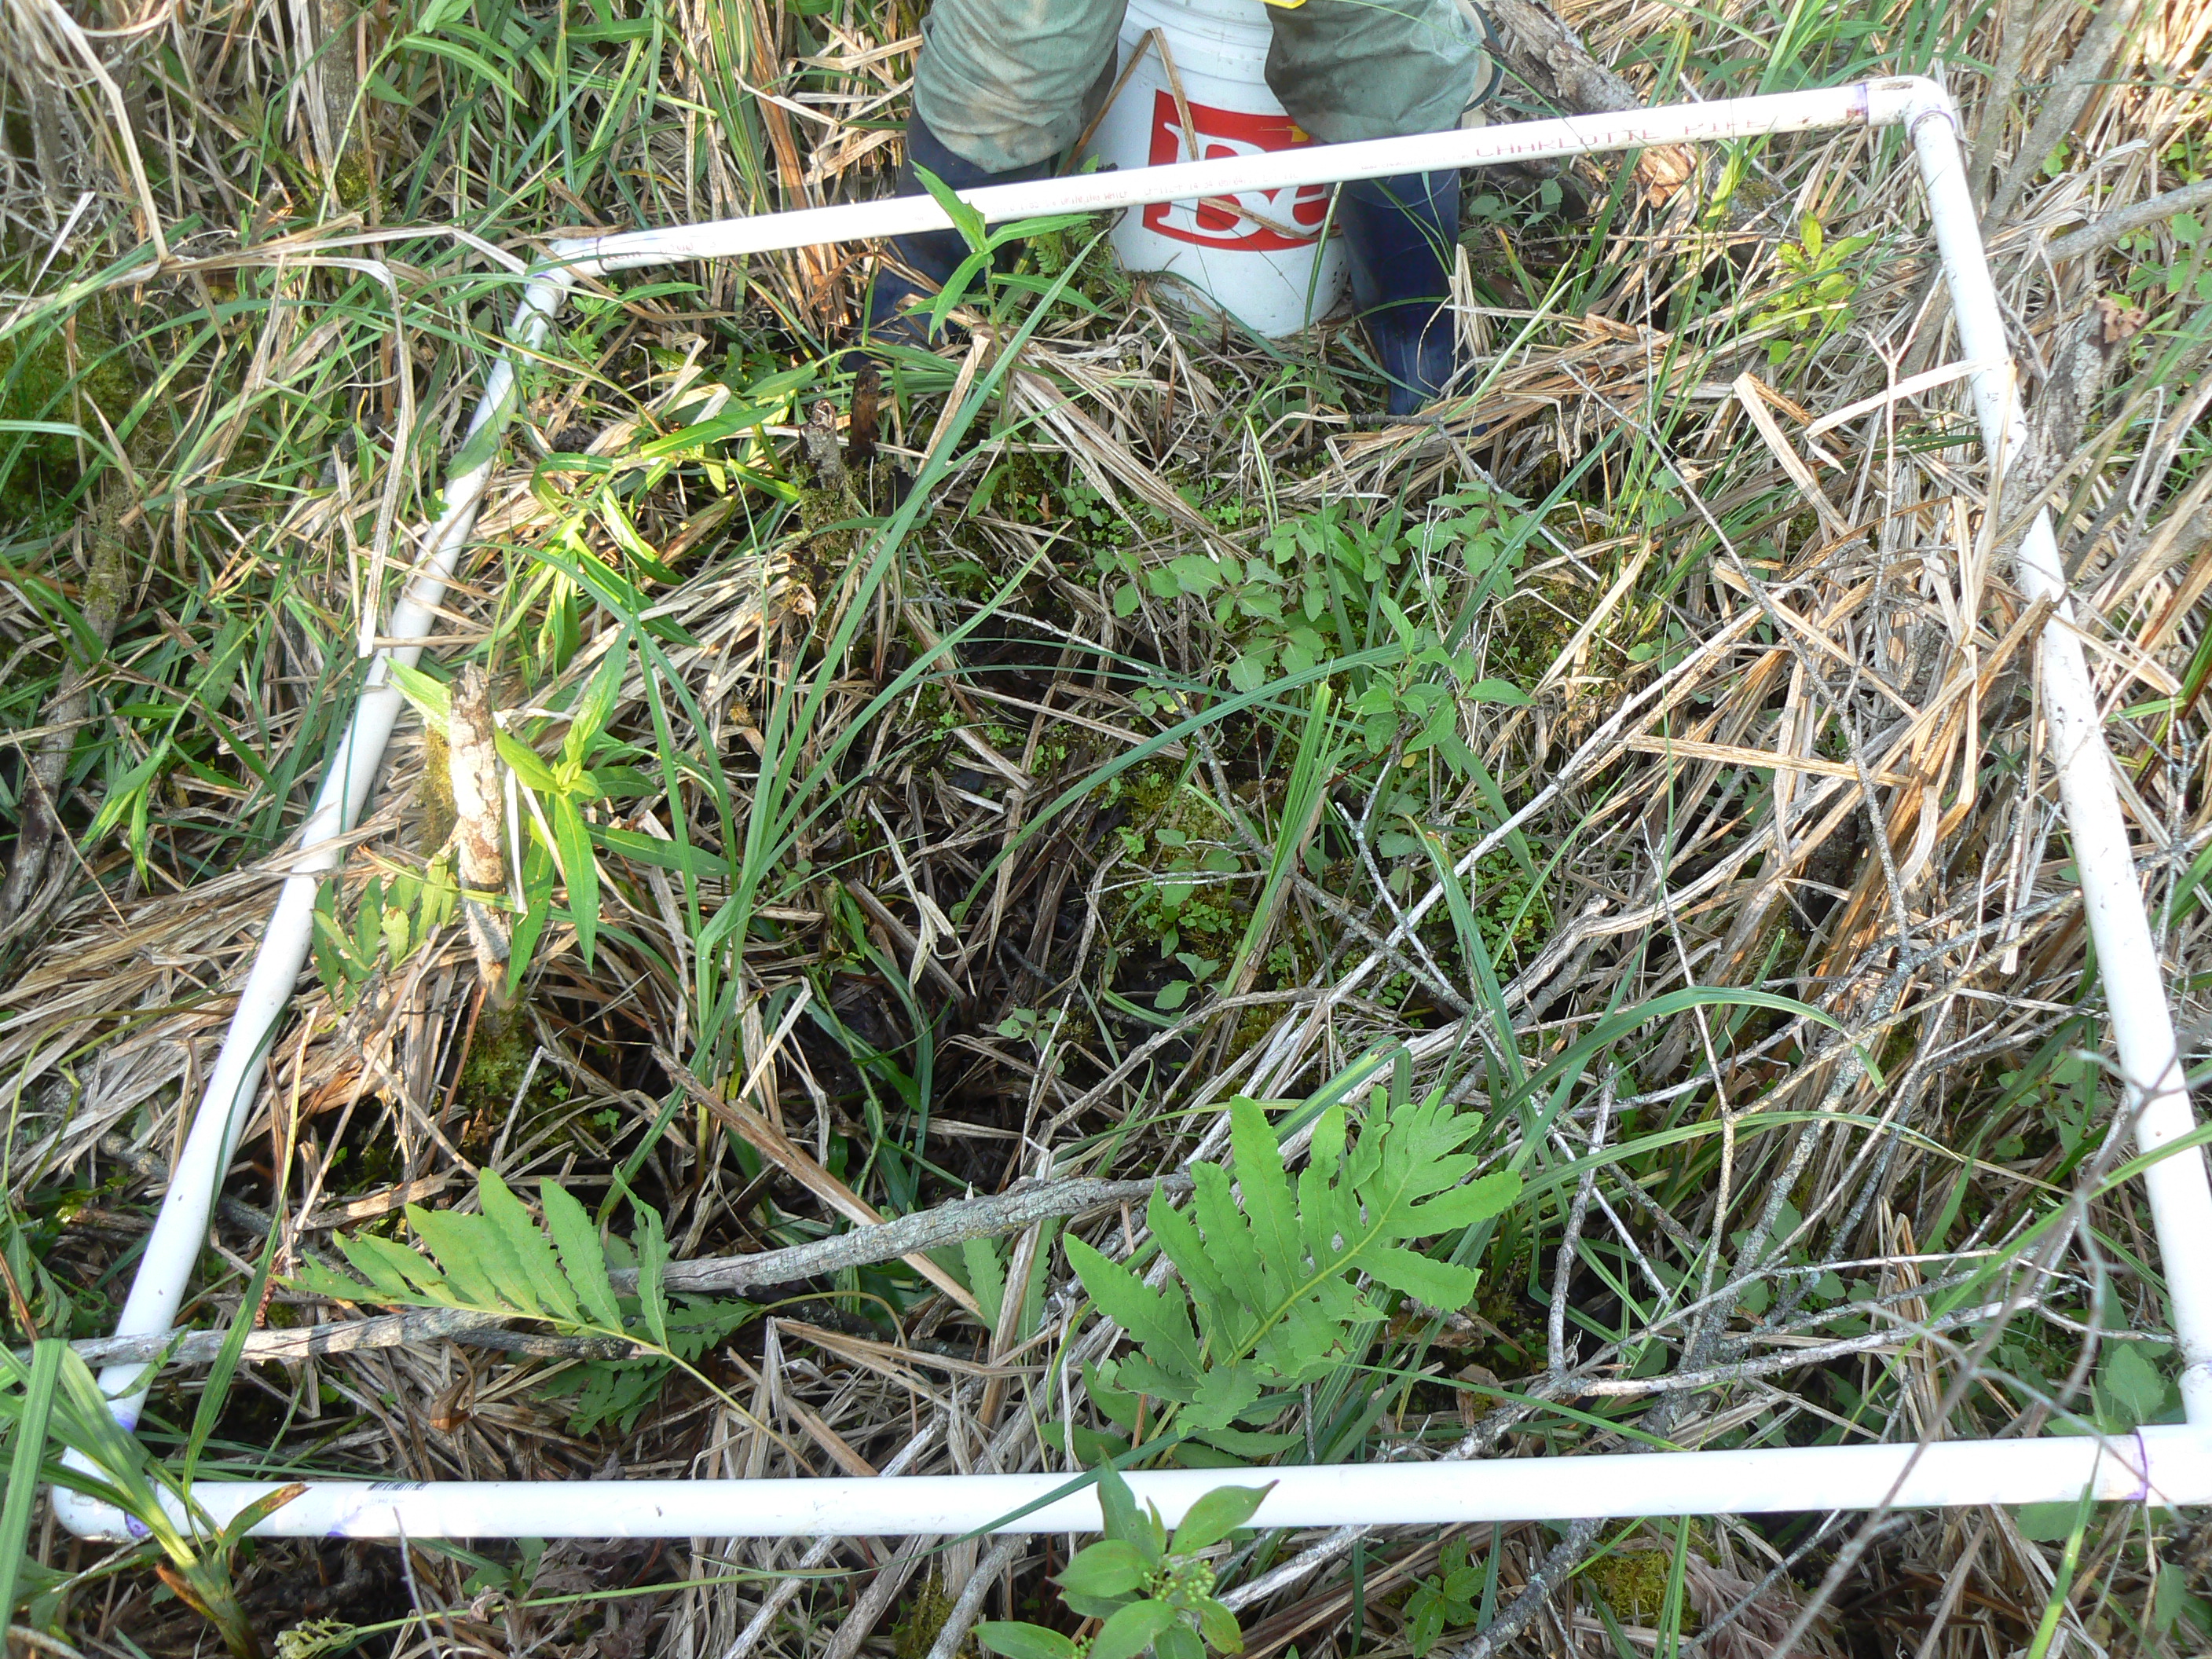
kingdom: Plantae
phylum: Tracheophyta
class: Polypodiopsida
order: Polypodiales
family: Onocleaceae
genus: Onoclea
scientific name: Onoclea sensibilis
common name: Sensitive fern
